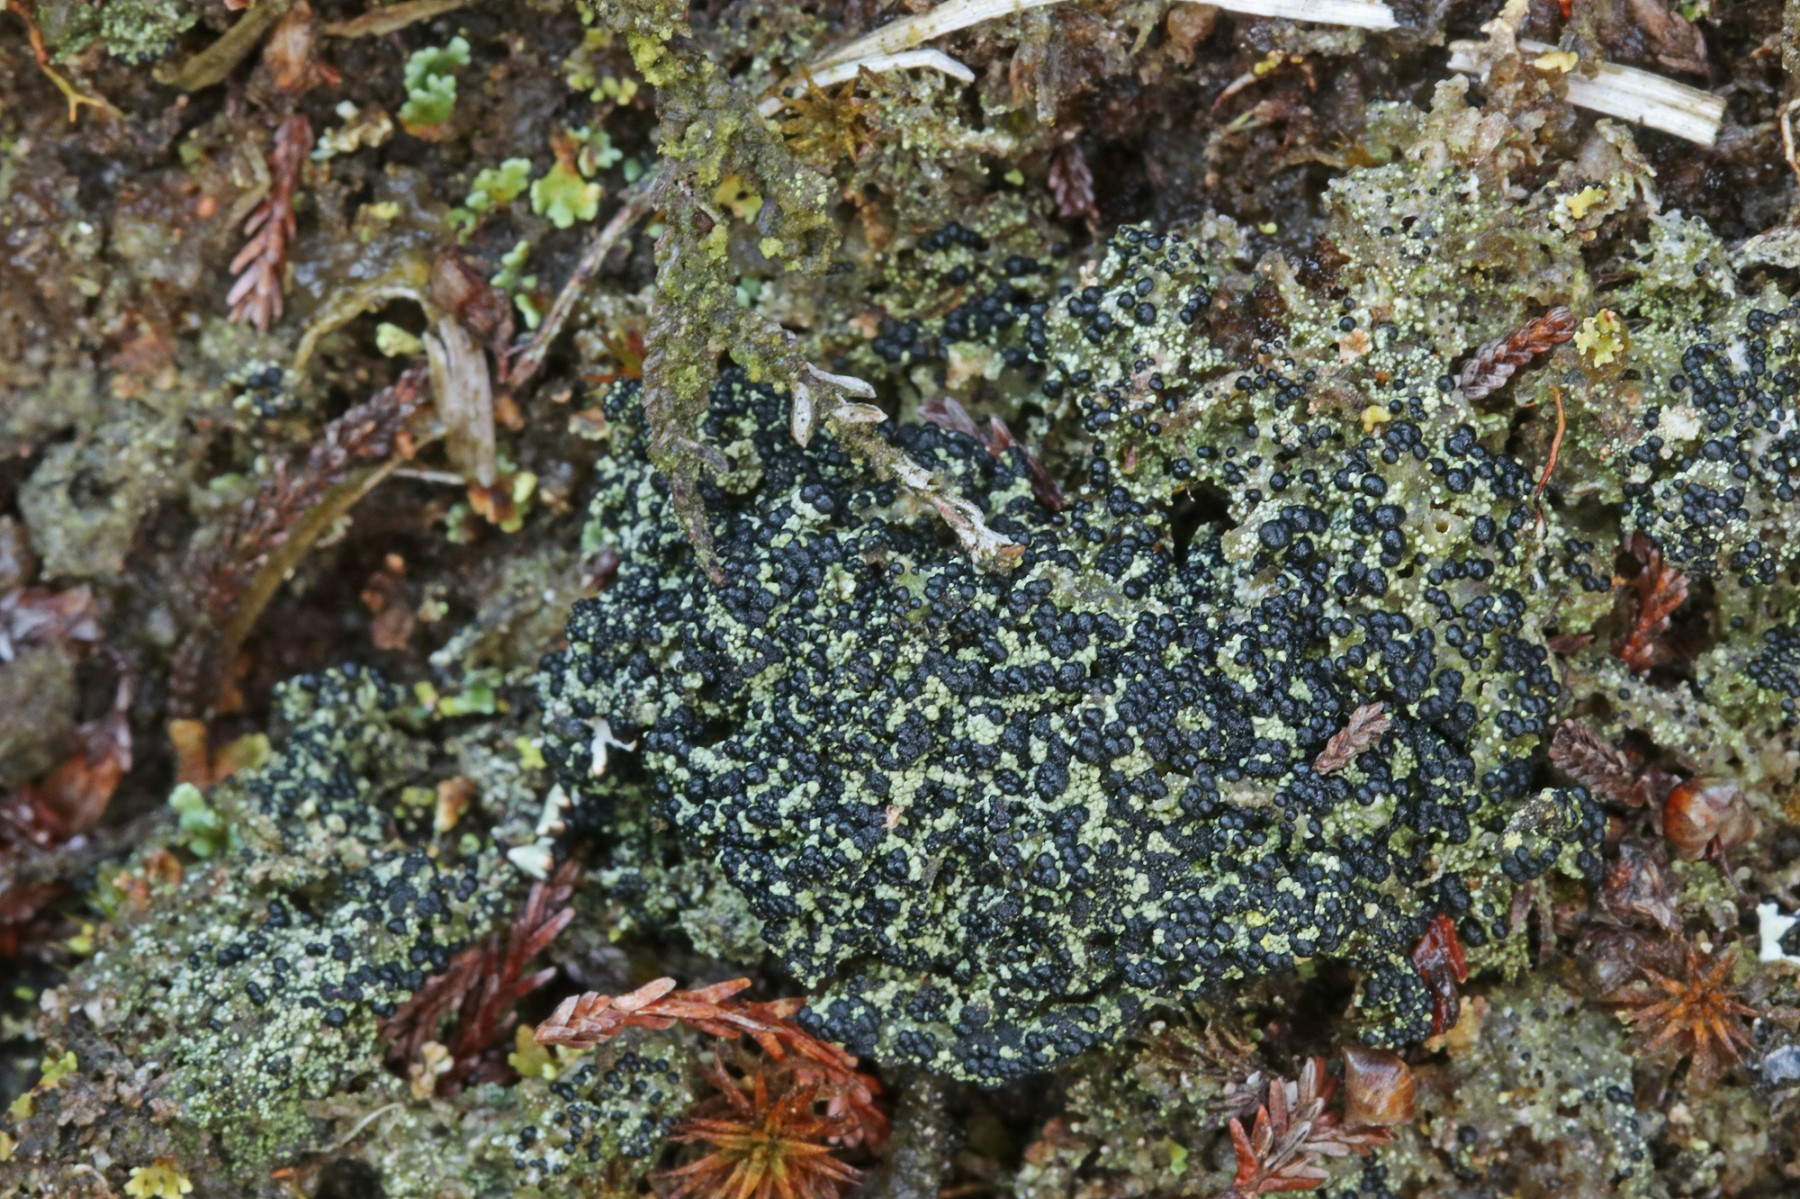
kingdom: Fungi
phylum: Ascomycota
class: Lecanoromycetes
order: Lecanorales
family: Byssolomataceae
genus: Micarea
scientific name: Micarea lignaria
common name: tørve-knaplav
